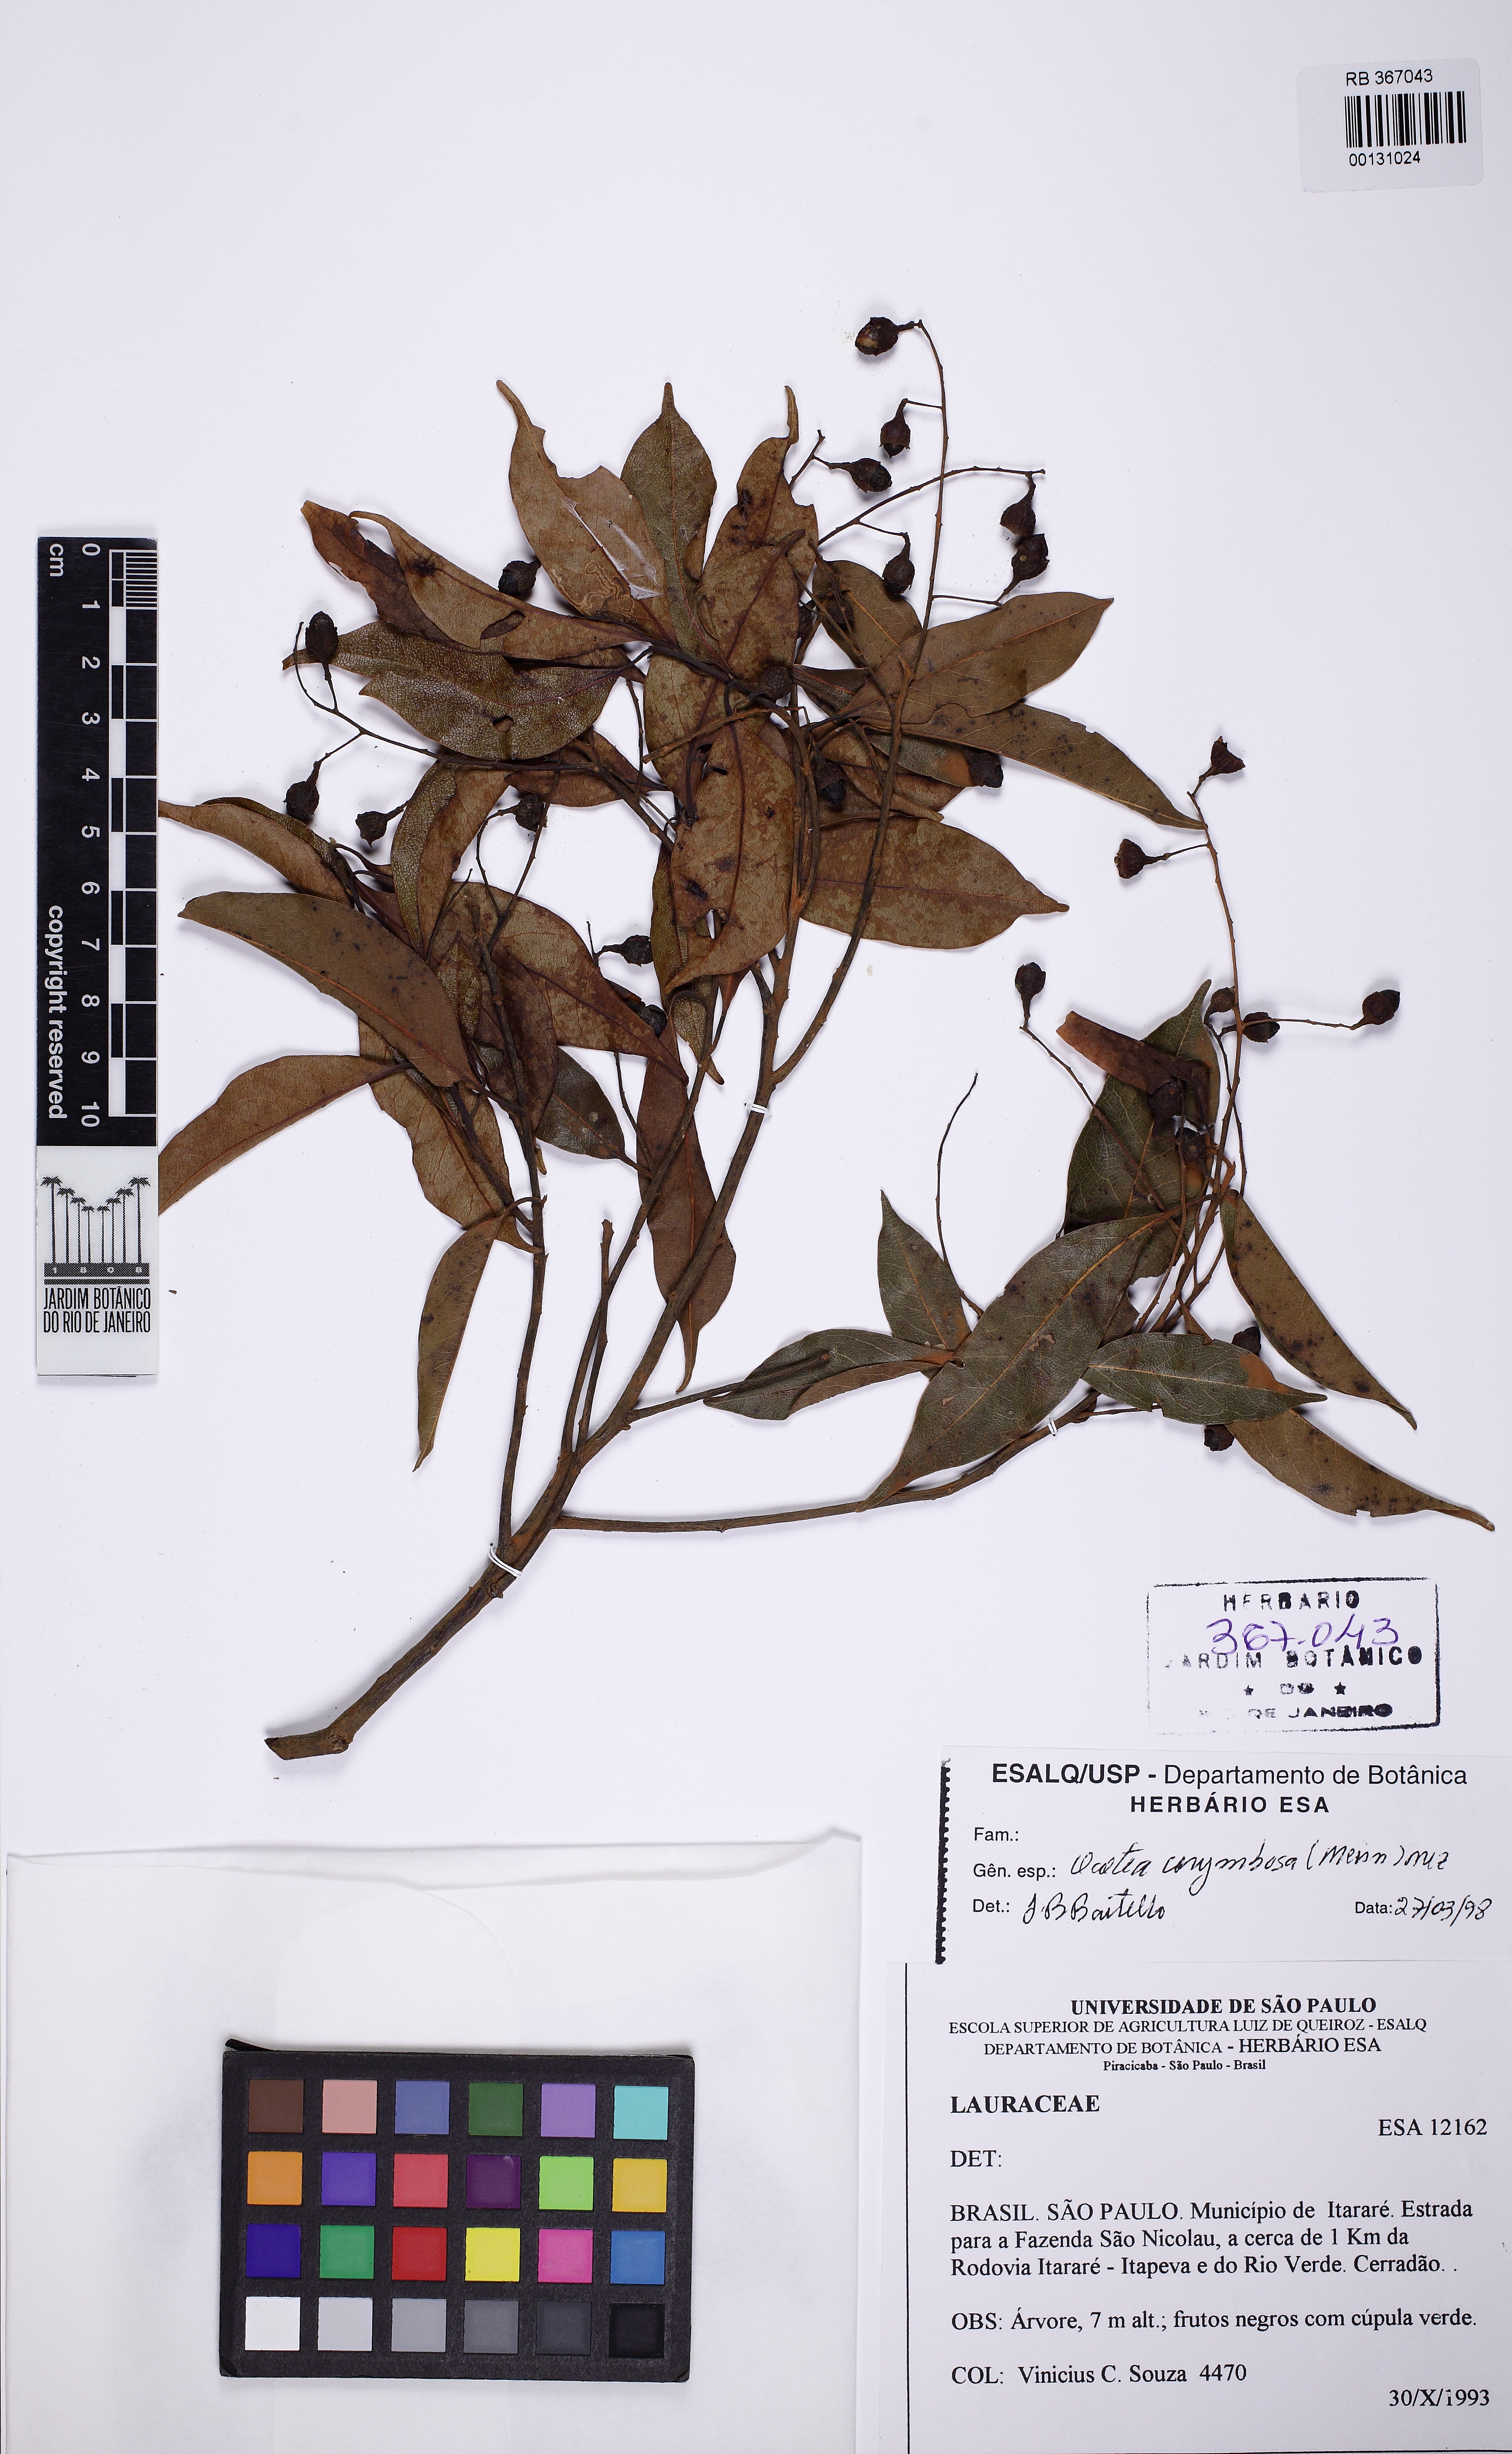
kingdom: Plantae
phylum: Tracheophyta
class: Magnoliopsida
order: Laurales
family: Lauraceae
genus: Mespilodaphne
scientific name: Mespilodaphne corymbosa
